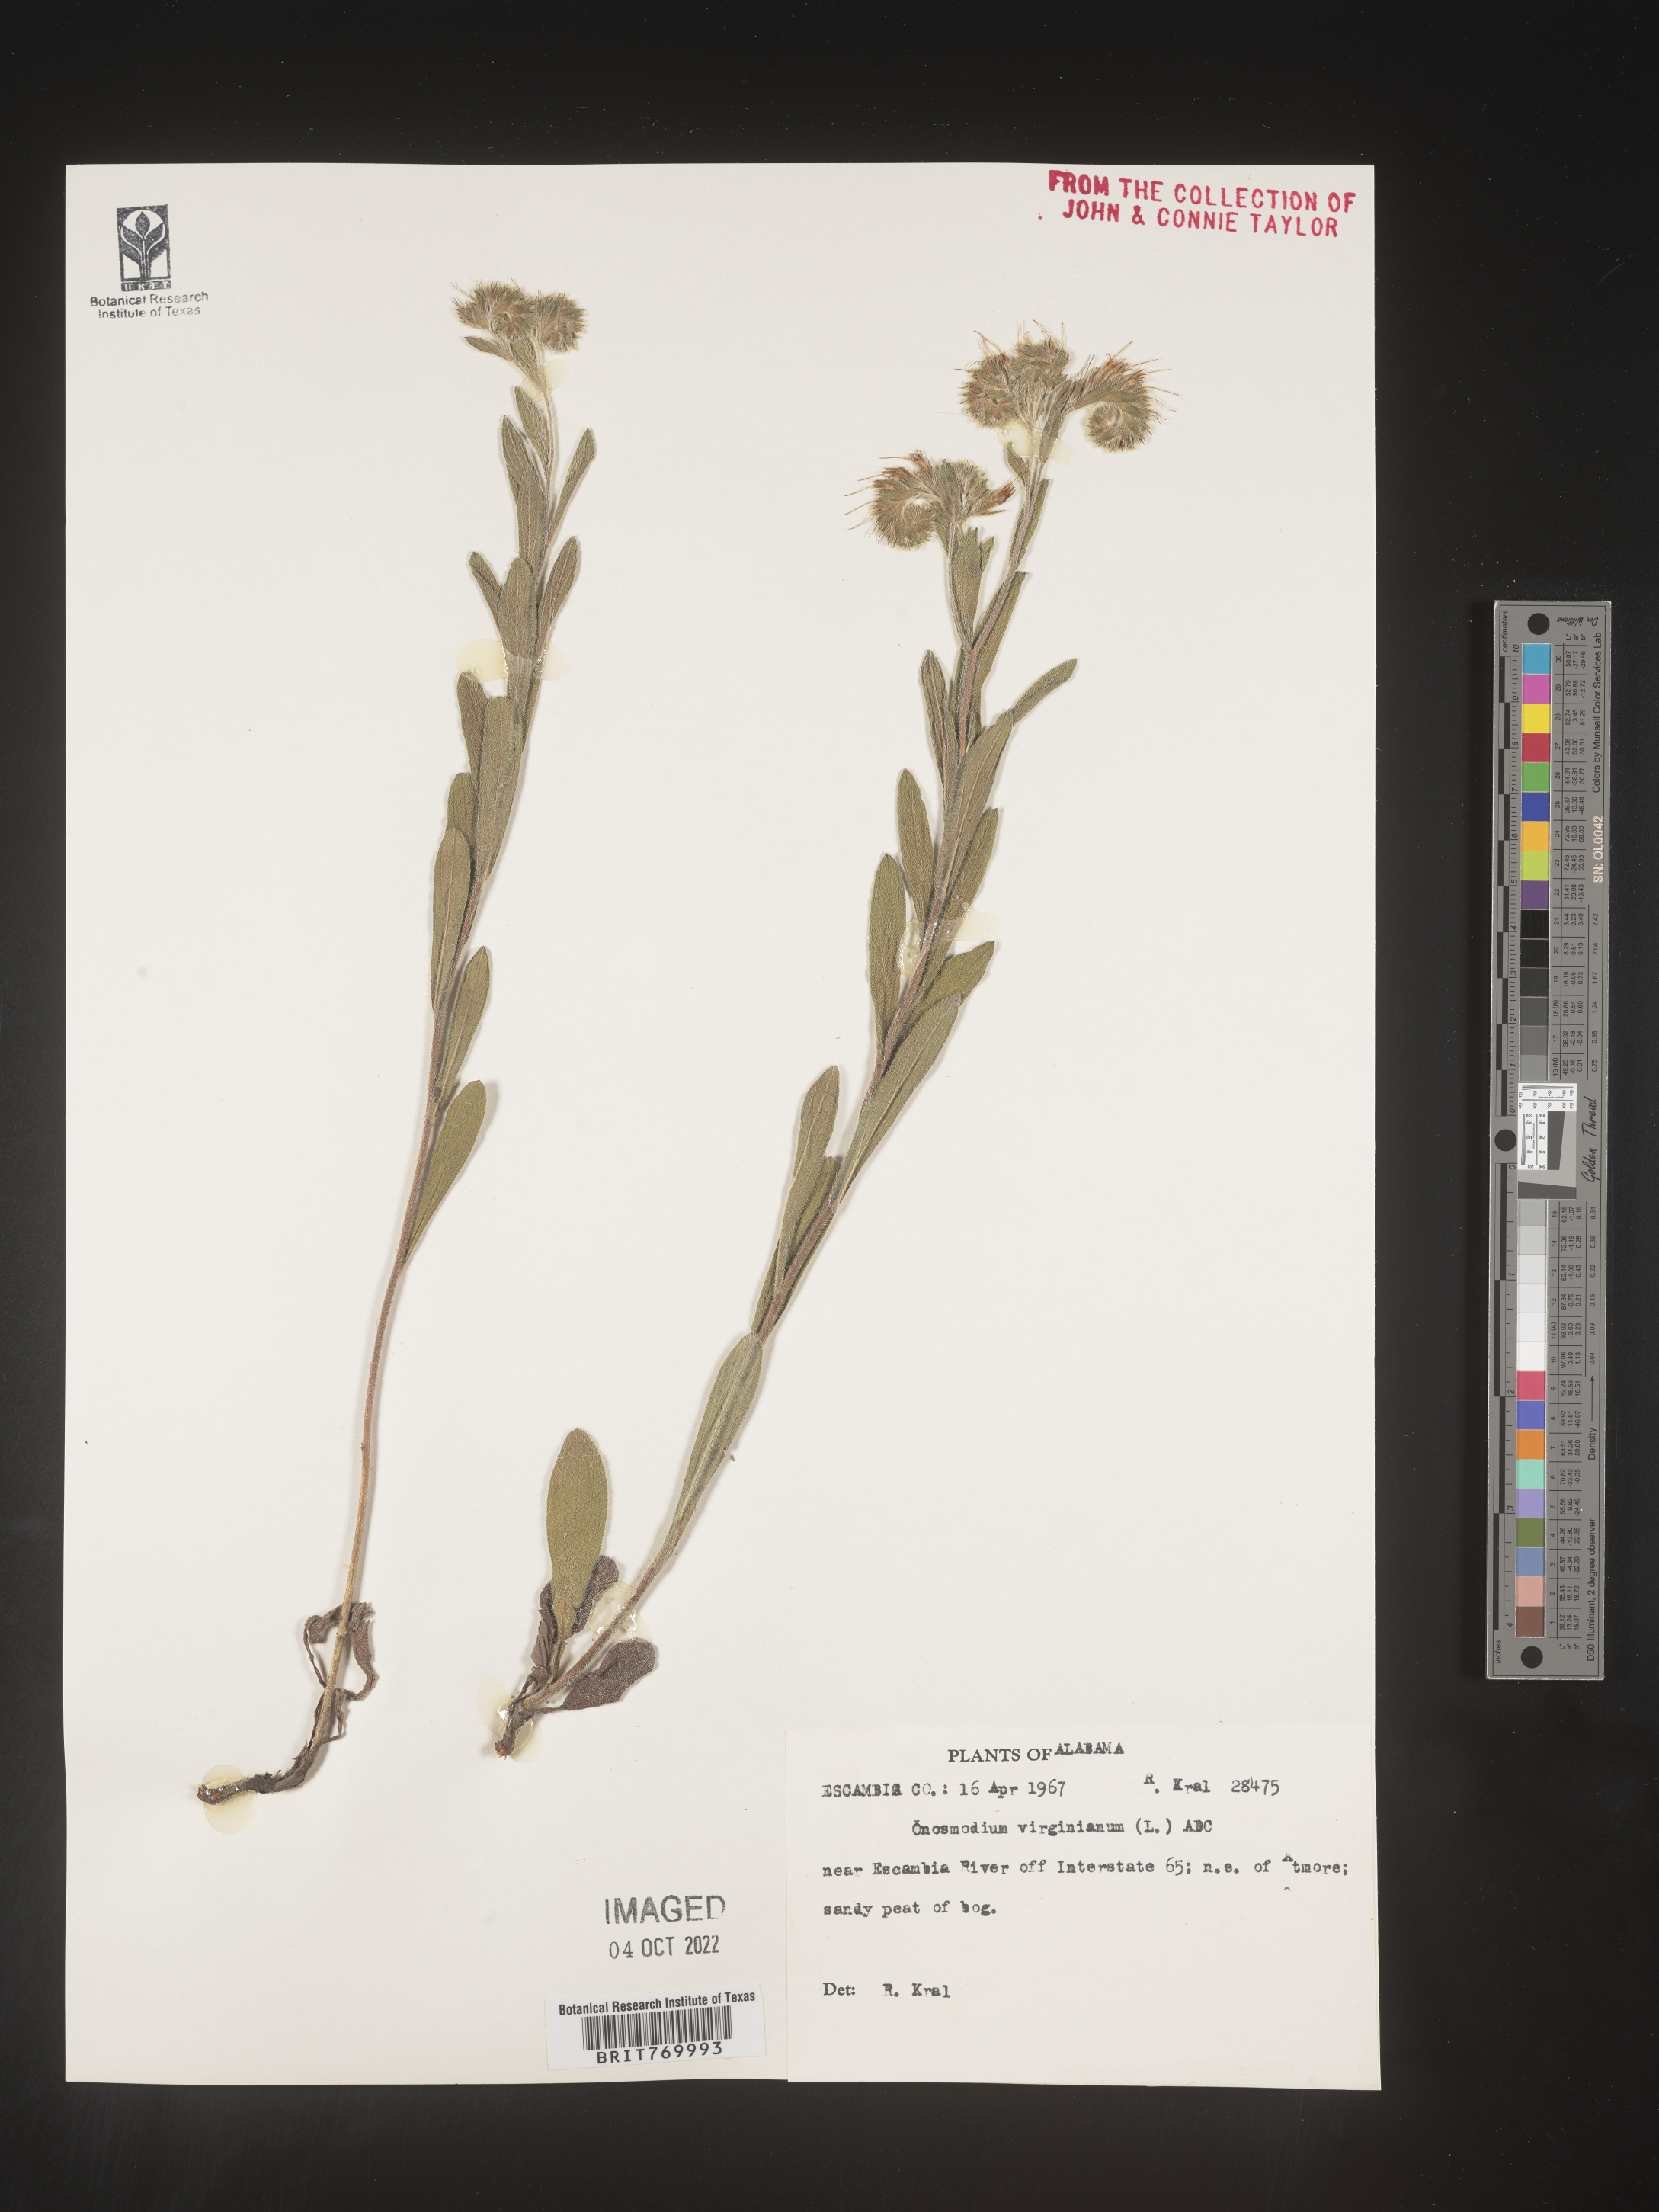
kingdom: Plantae
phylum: Tracheophyta
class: Magnoliopsida
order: Boraginales
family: Boraginaceae
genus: Lithospermum
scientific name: Lithospermum virginianum
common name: Eastern false gromwell
